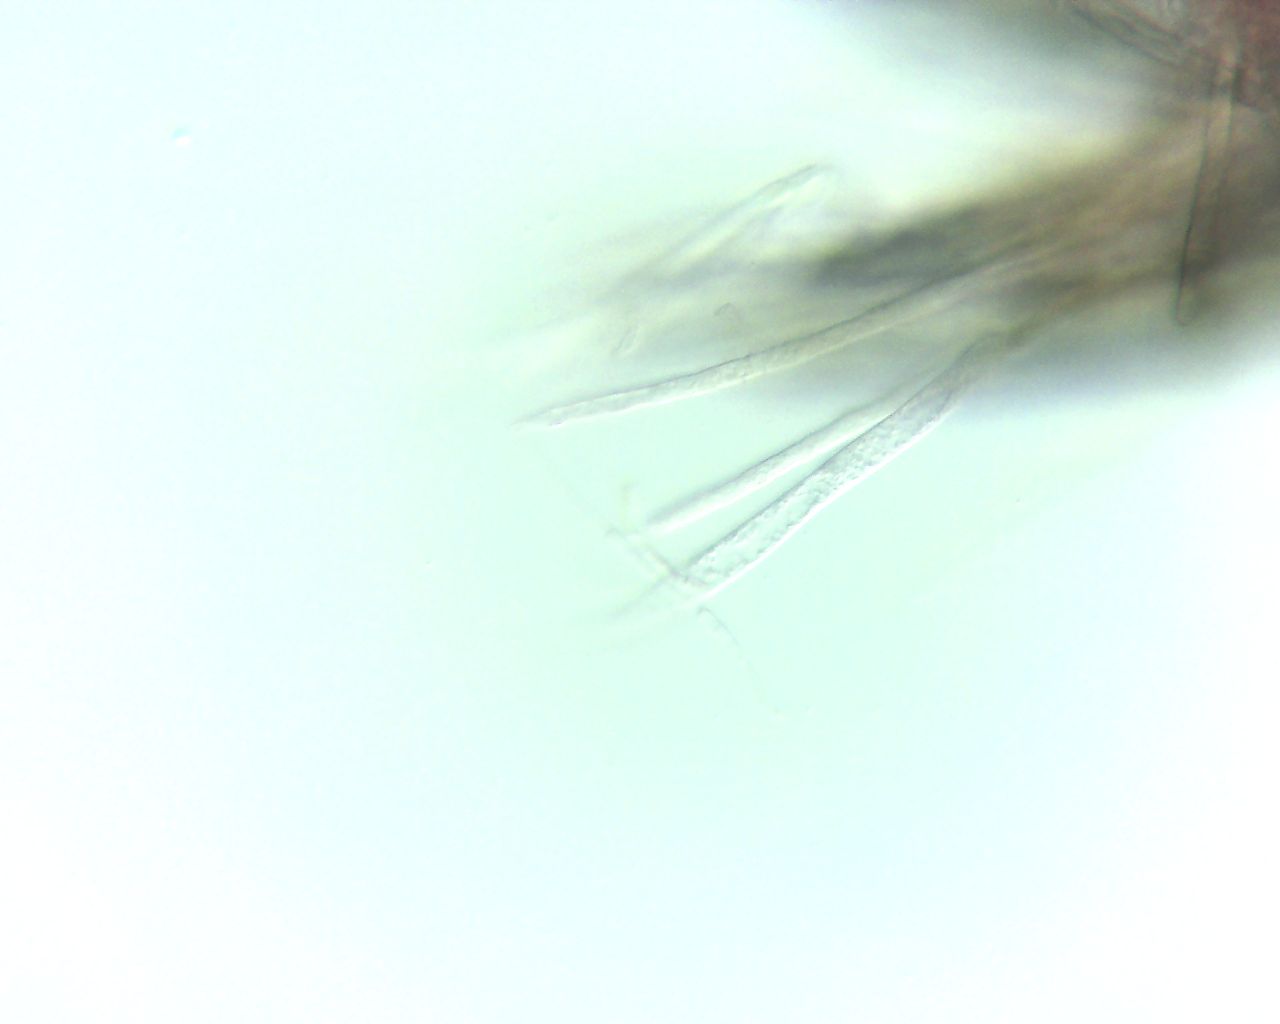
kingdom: Fungi
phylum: Ascomycota
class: Leotiomycetes
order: Helotiales
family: Lachnaceae
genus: Lachnum
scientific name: Lachnum sulphureum
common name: svovlhåret frynseskive
